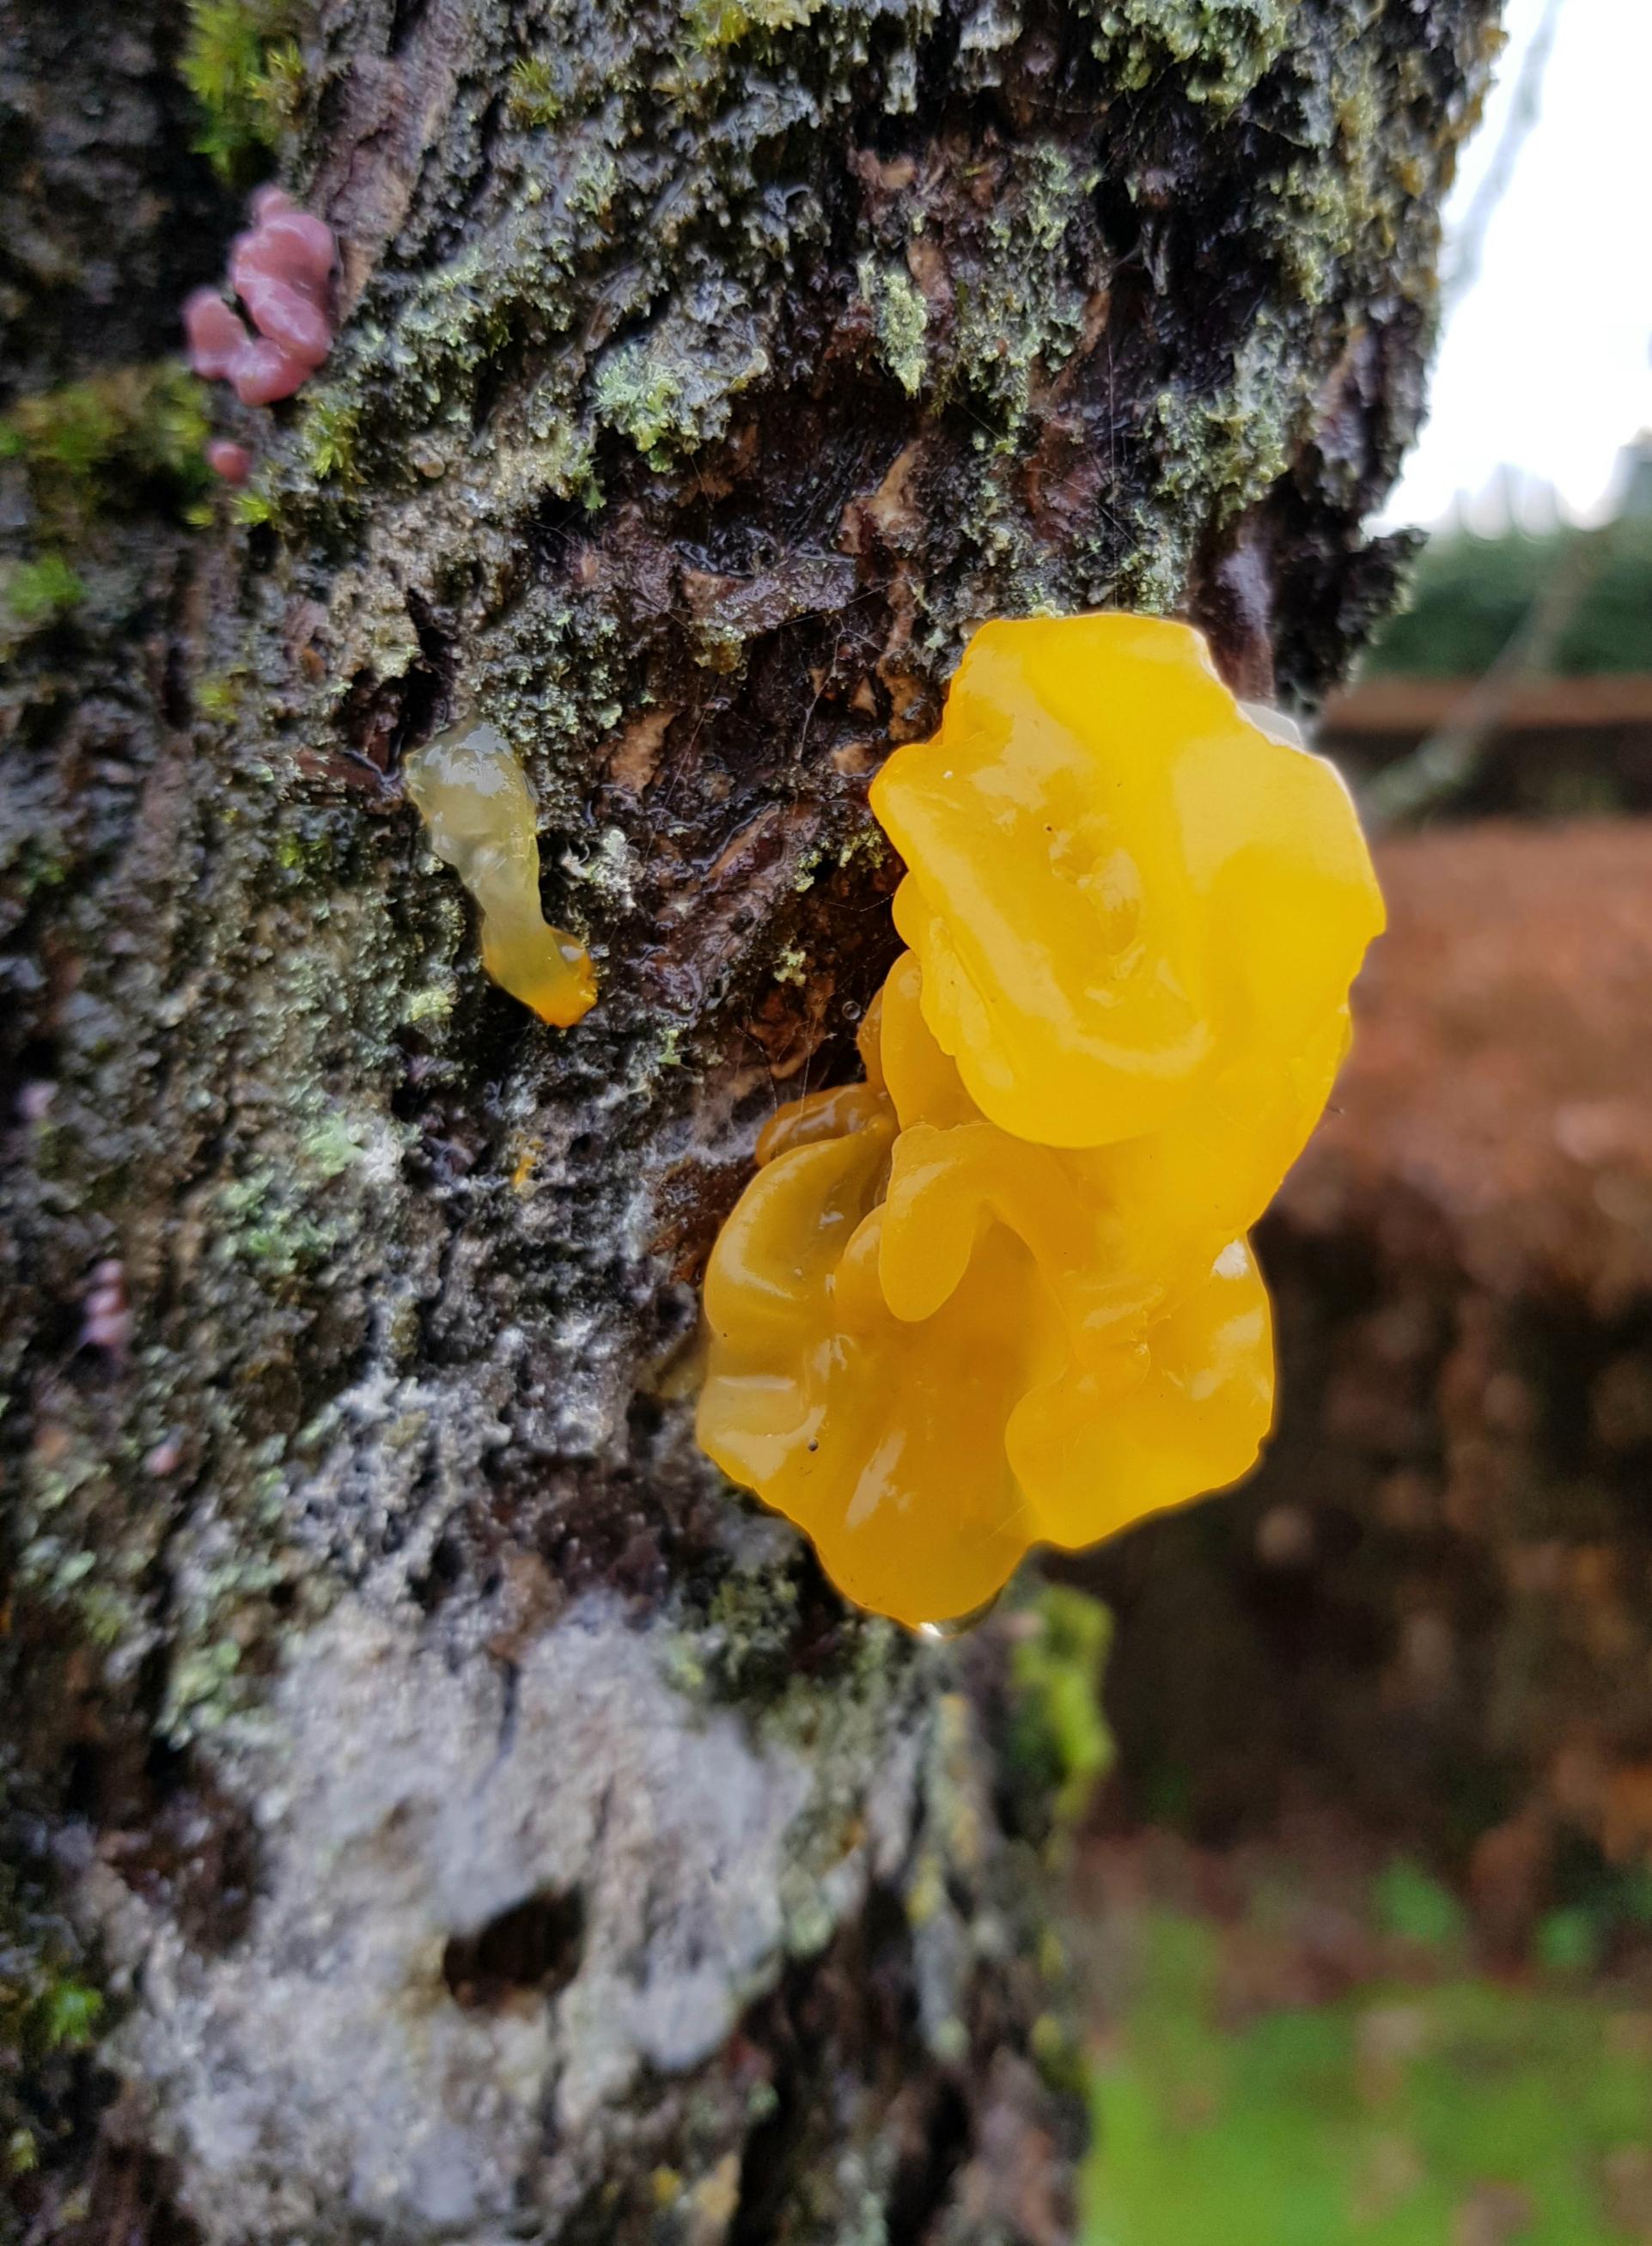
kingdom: Fungi
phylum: Basidiomycota
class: Tremellomycetes
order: Tremellales
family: Tremellaceae
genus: Tremella
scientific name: Tremella mesenterica
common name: gul bævresvamp
